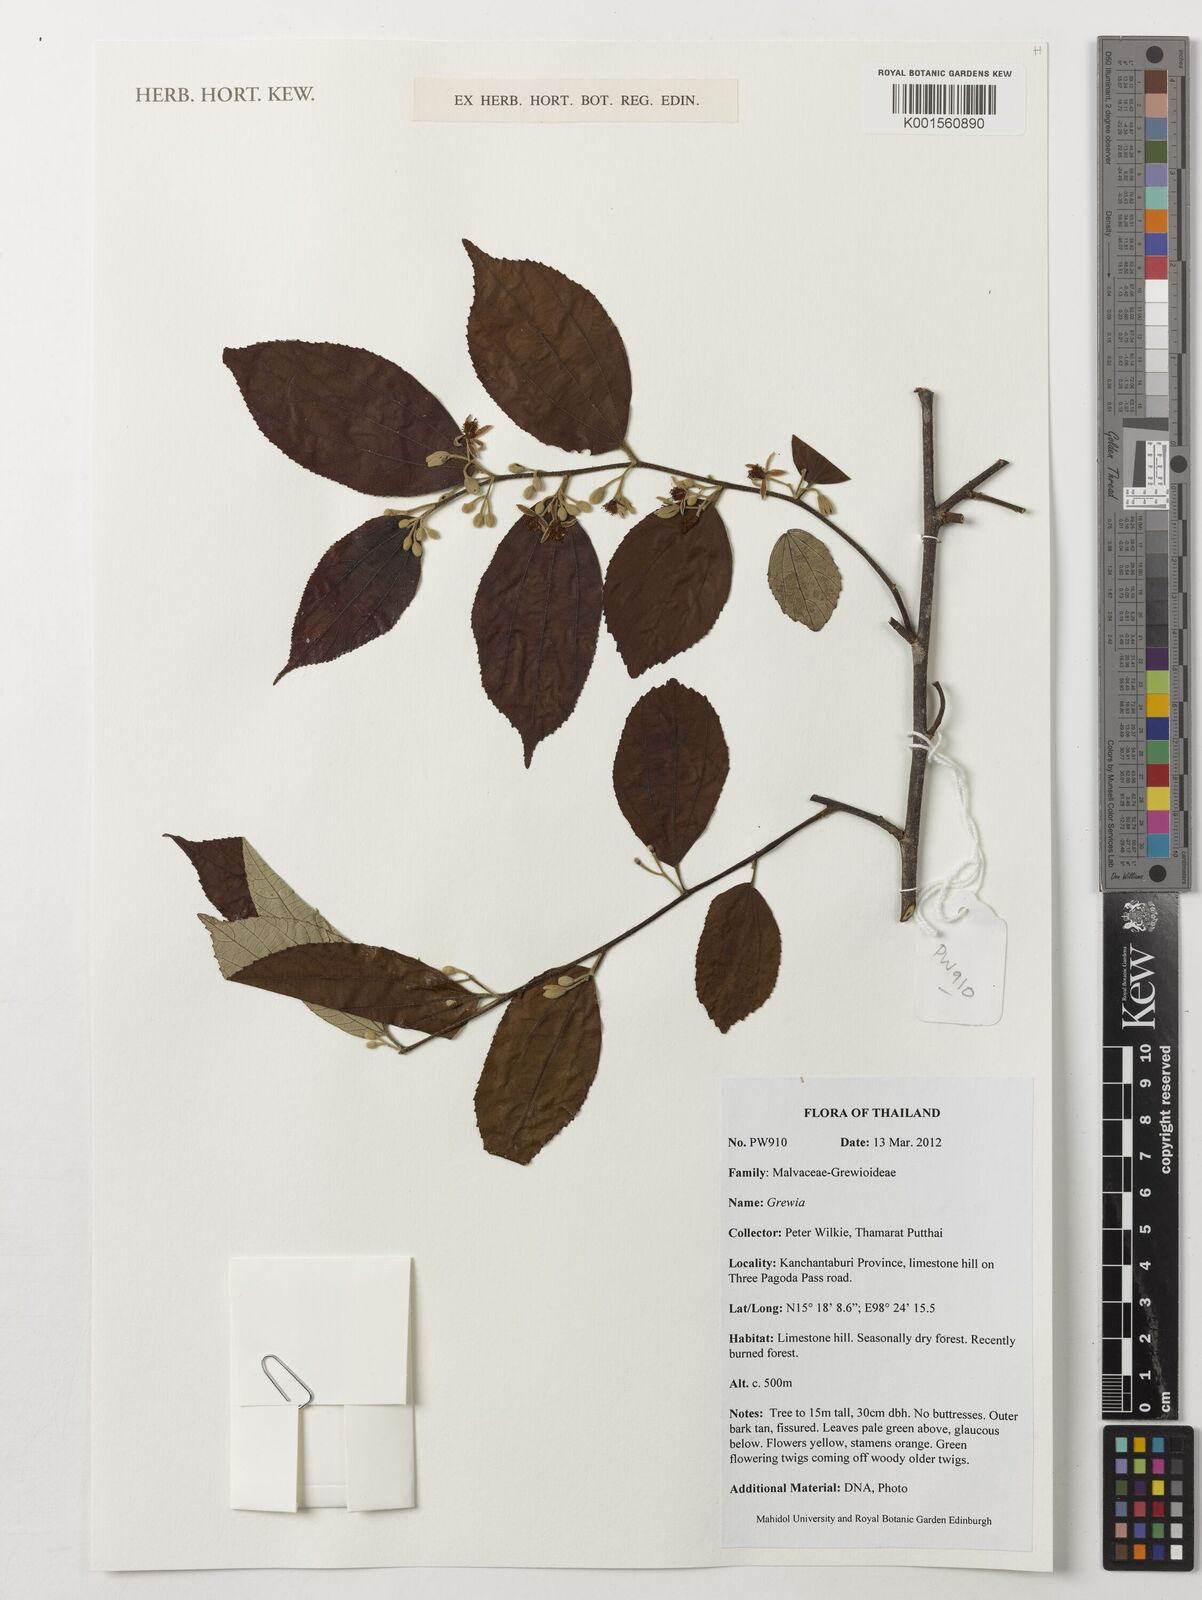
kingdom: Plantae
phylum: Tracheophyta
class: Magnoliopsida
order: Malvales
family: Malvaceae
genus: Grewia
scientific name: Grewia
